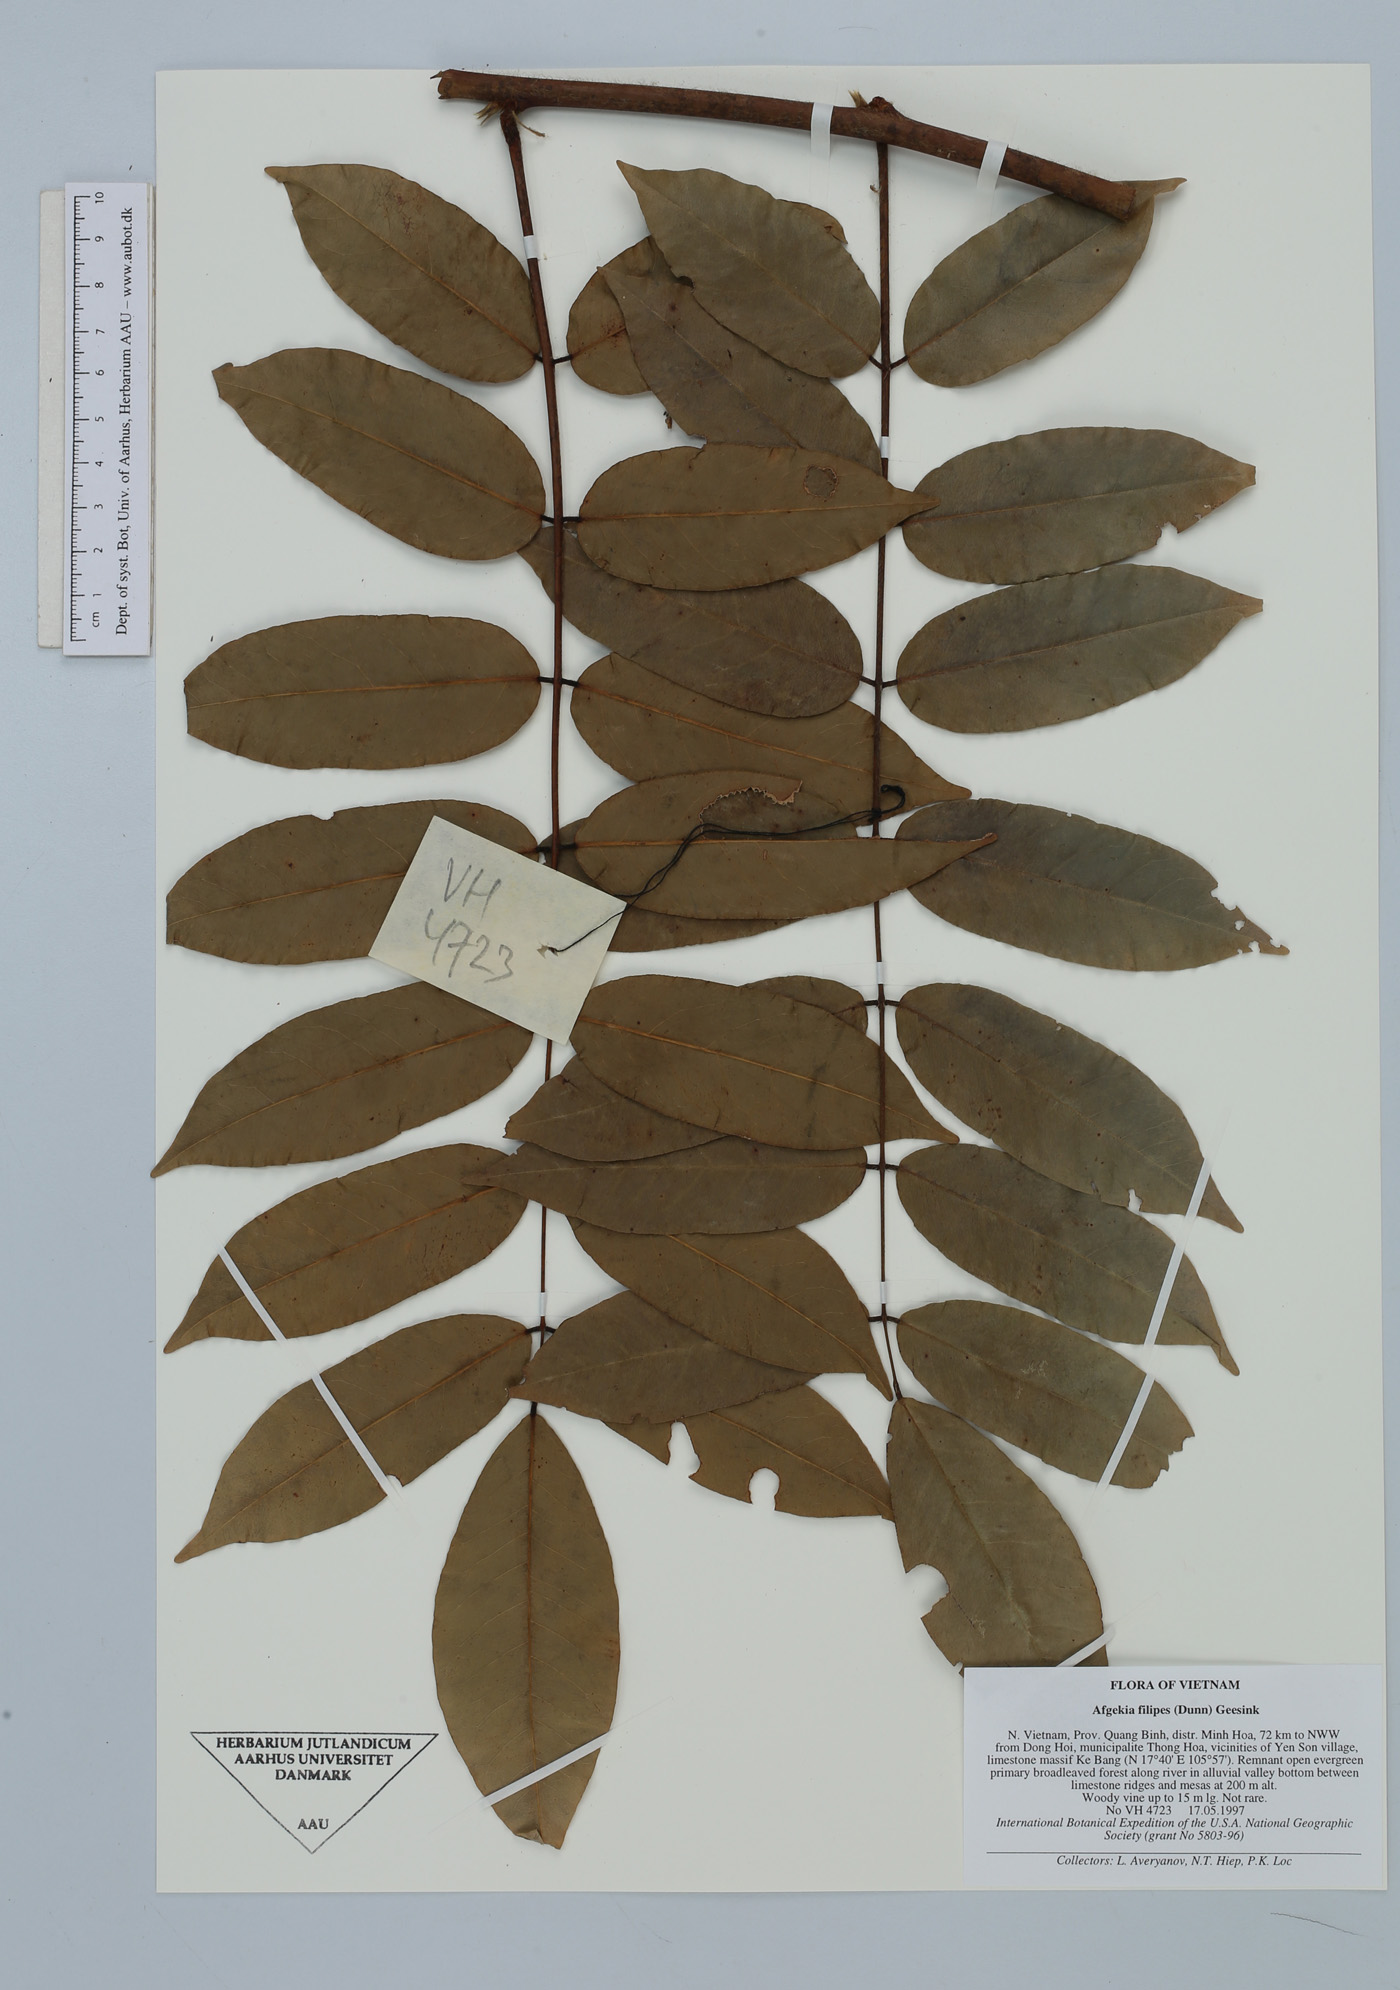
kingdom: Plantae
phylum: Tracheophyta
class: Magnoliopsida
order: Fabales
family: Fabaceae
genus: Padbruggea
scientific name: Padbruggea filipes
